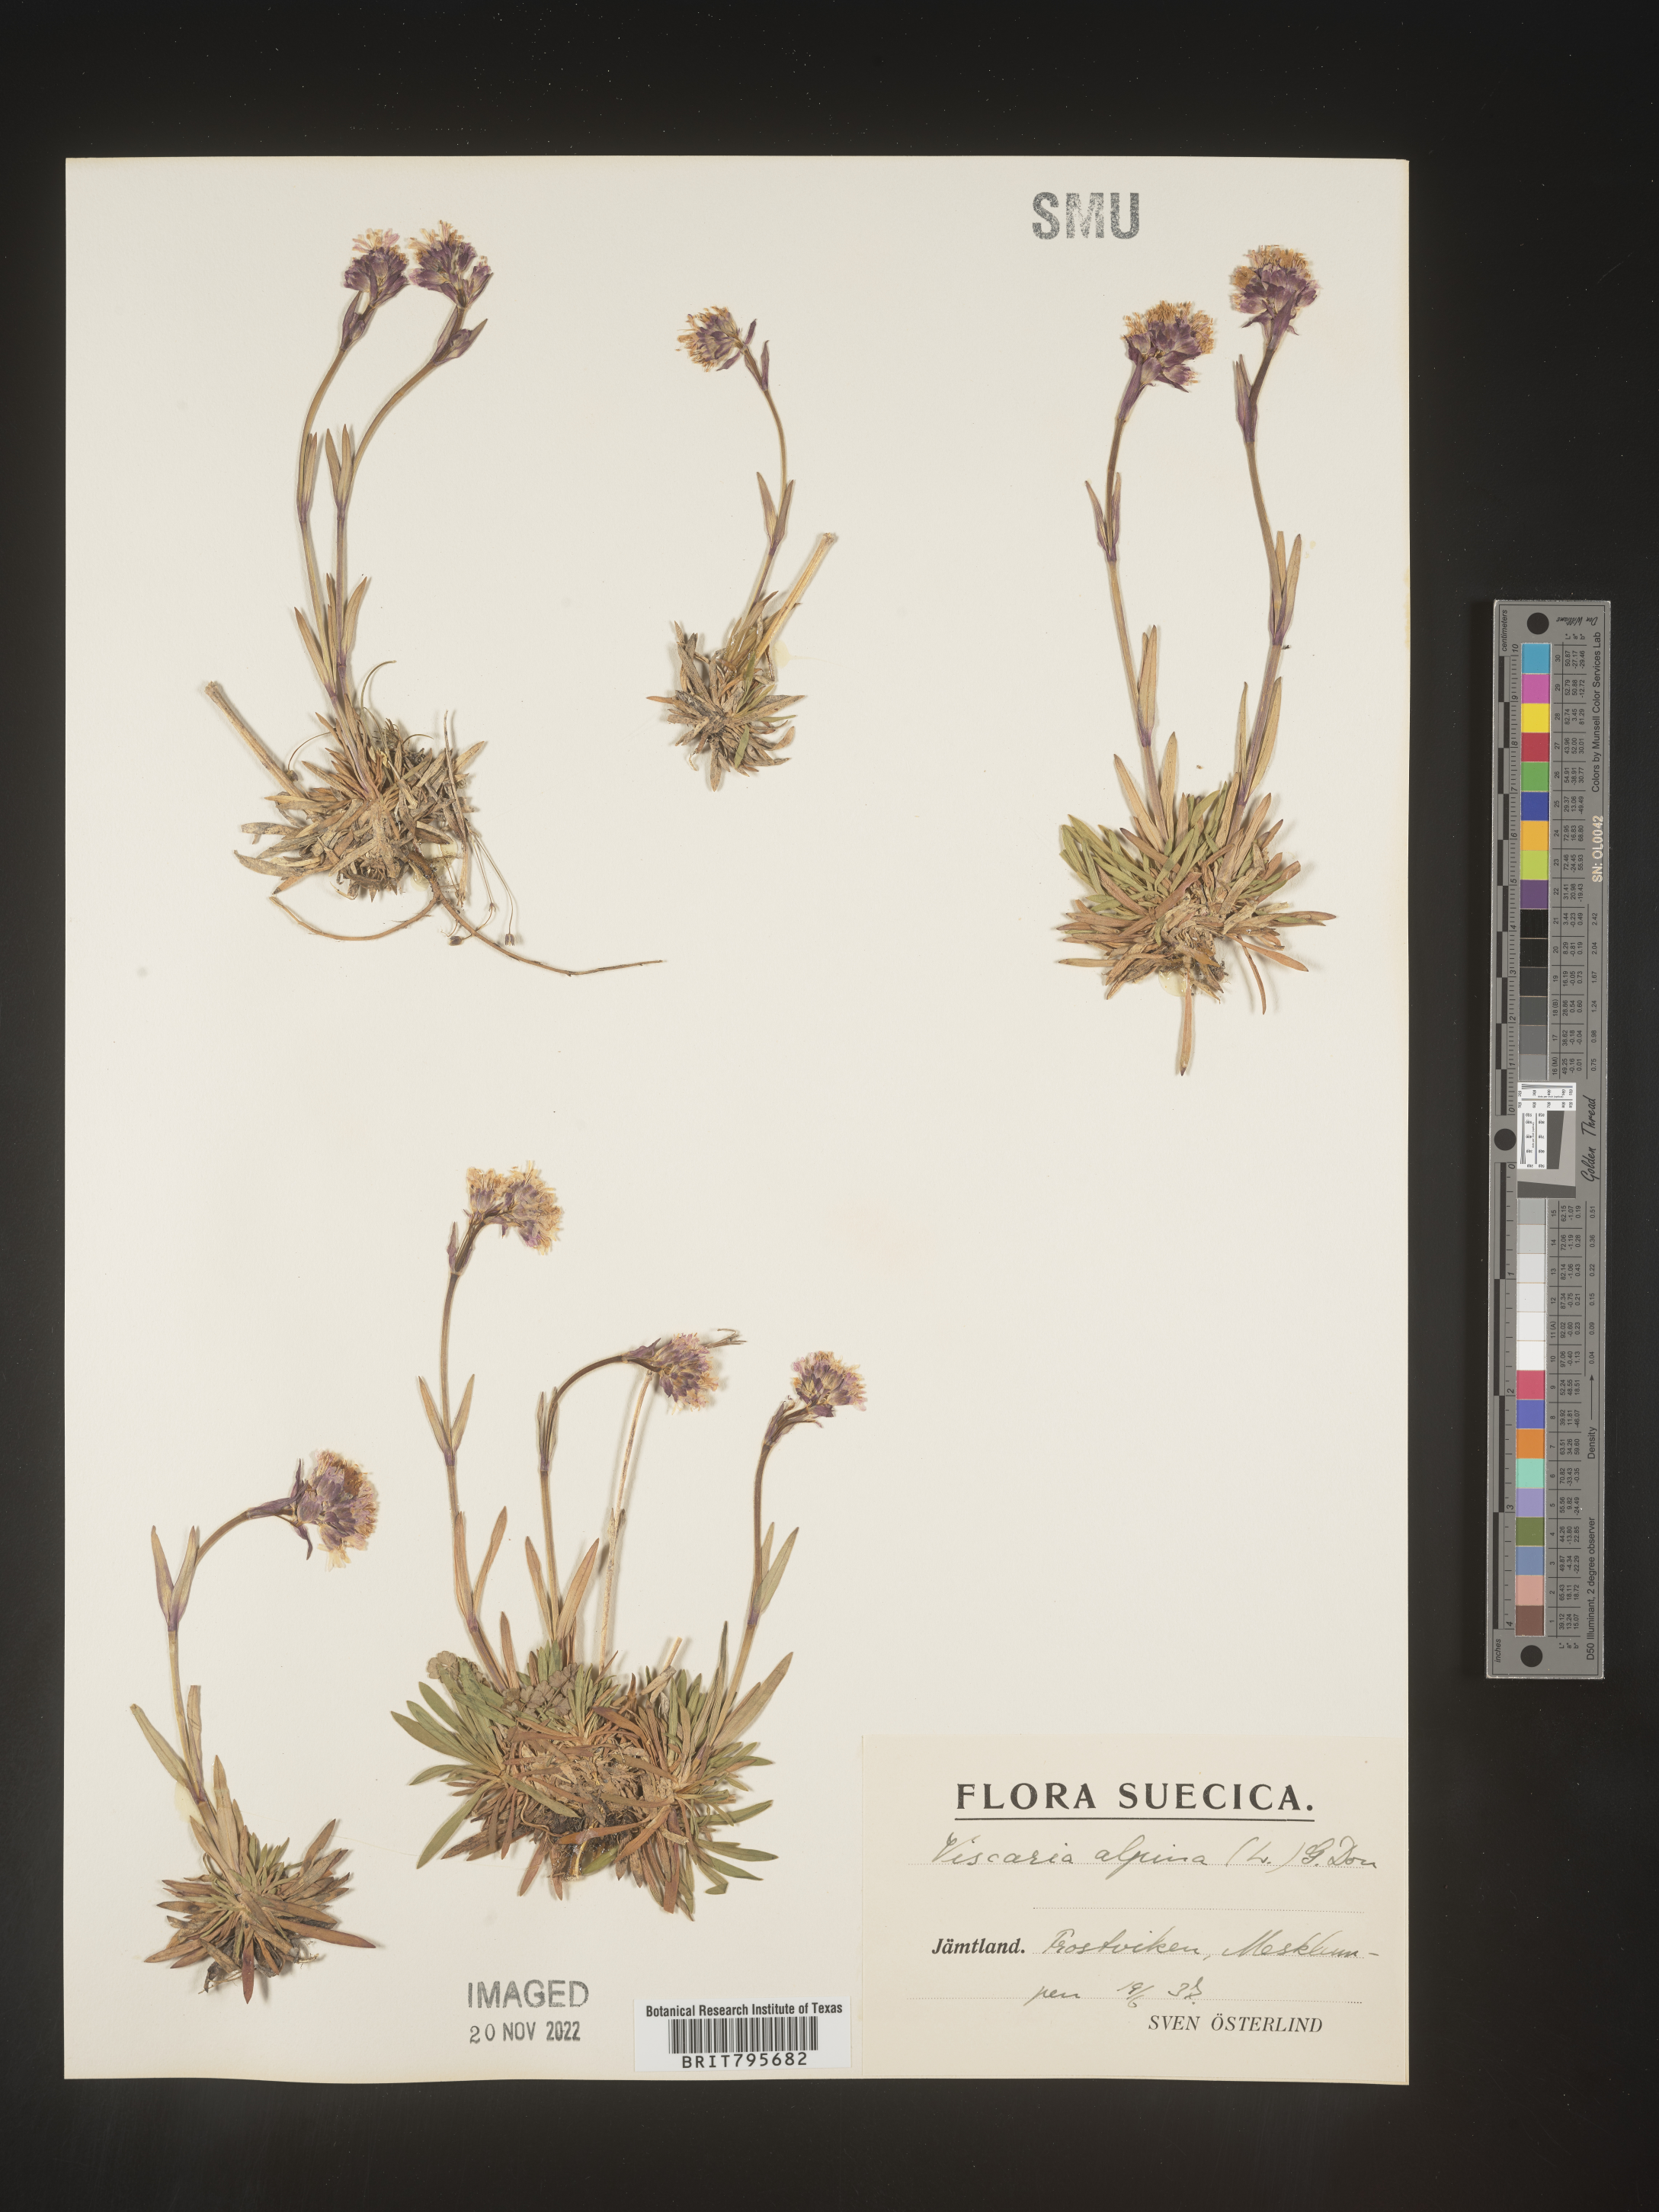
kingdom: Plantae
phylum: Tracheophyta
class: Magnoliopsida
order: Caryophyllales
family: Caryophyllaceae
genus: Viscaria
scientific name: Viscaria
